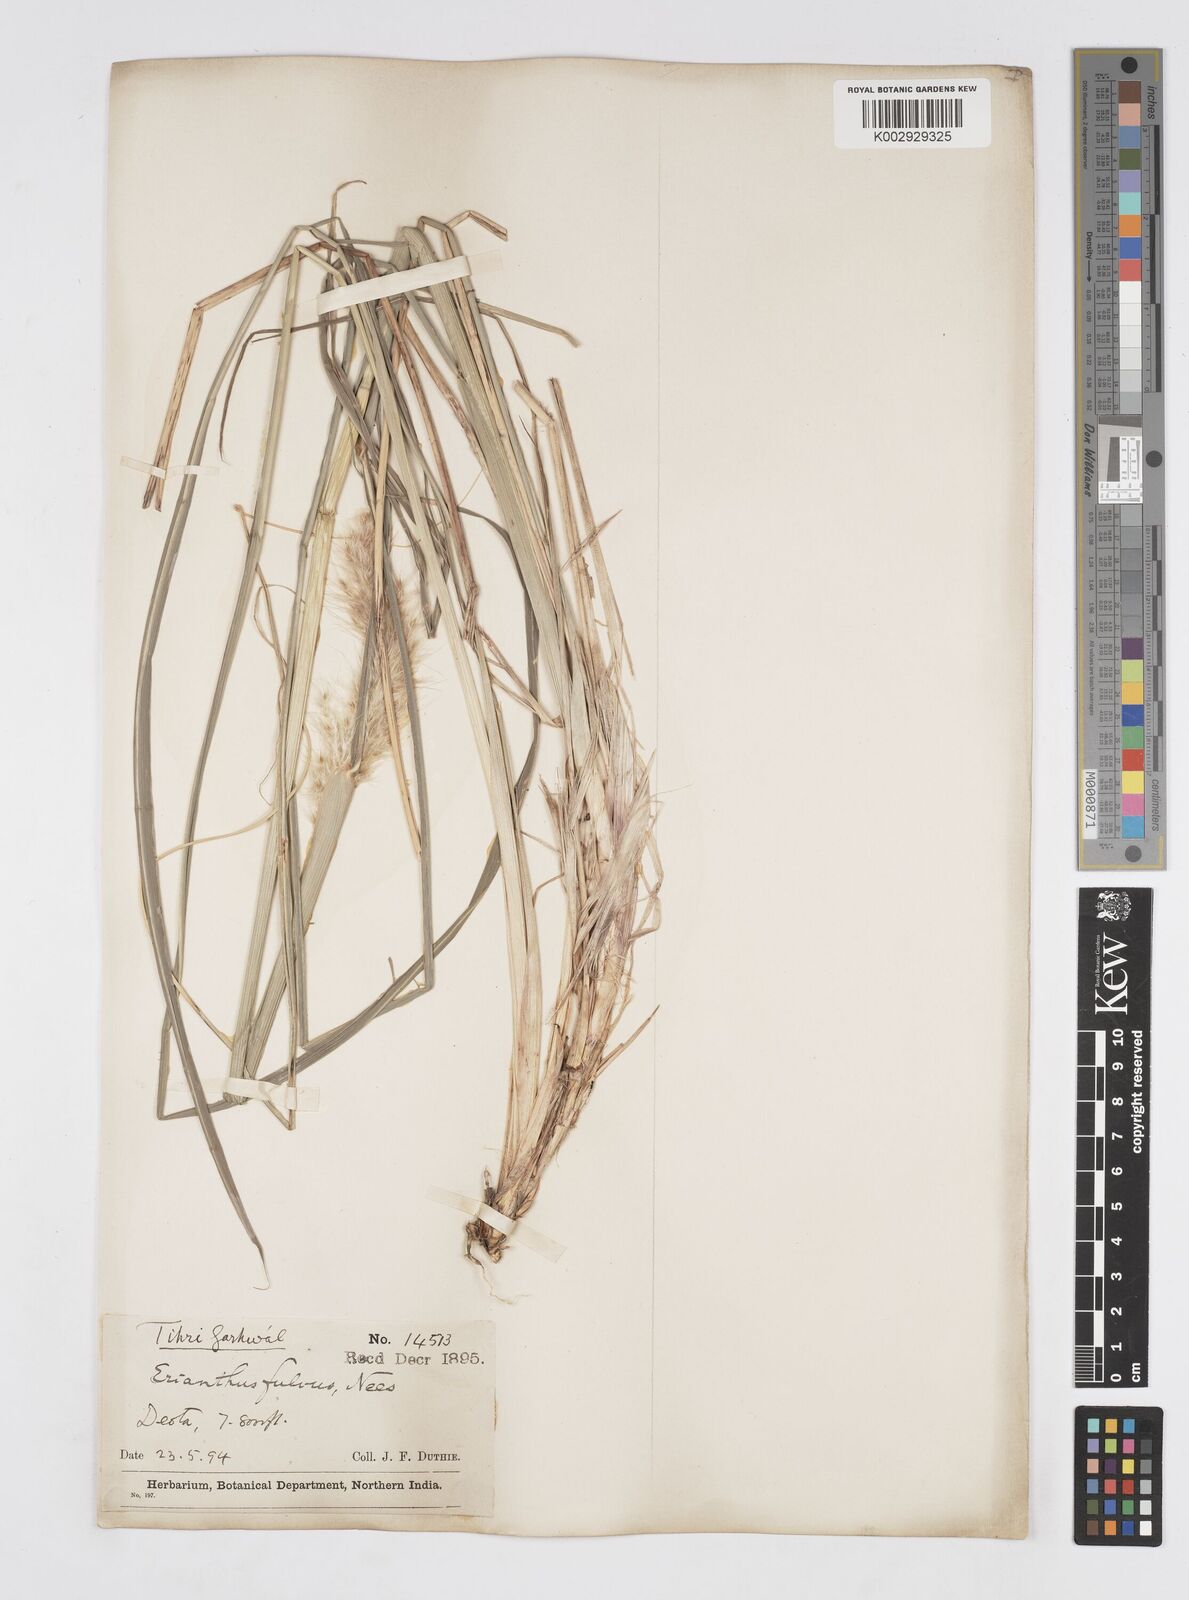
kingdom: Plantae
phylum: Tracheophyta
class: Liliopsida
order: Poales
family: Poaceae
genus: Tripidium
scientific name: Tripidium rufipilum
